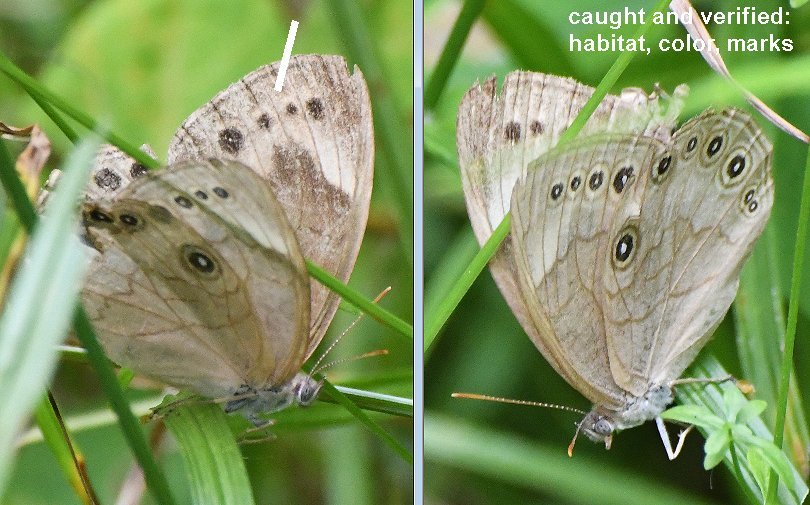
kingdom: Animalia
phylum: Arthropoda
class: Insecta
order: Lepidoptera
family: Nymphalidae
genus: Lethe
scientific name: Lethe eurydice
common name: Appalachian Eyed Brown
